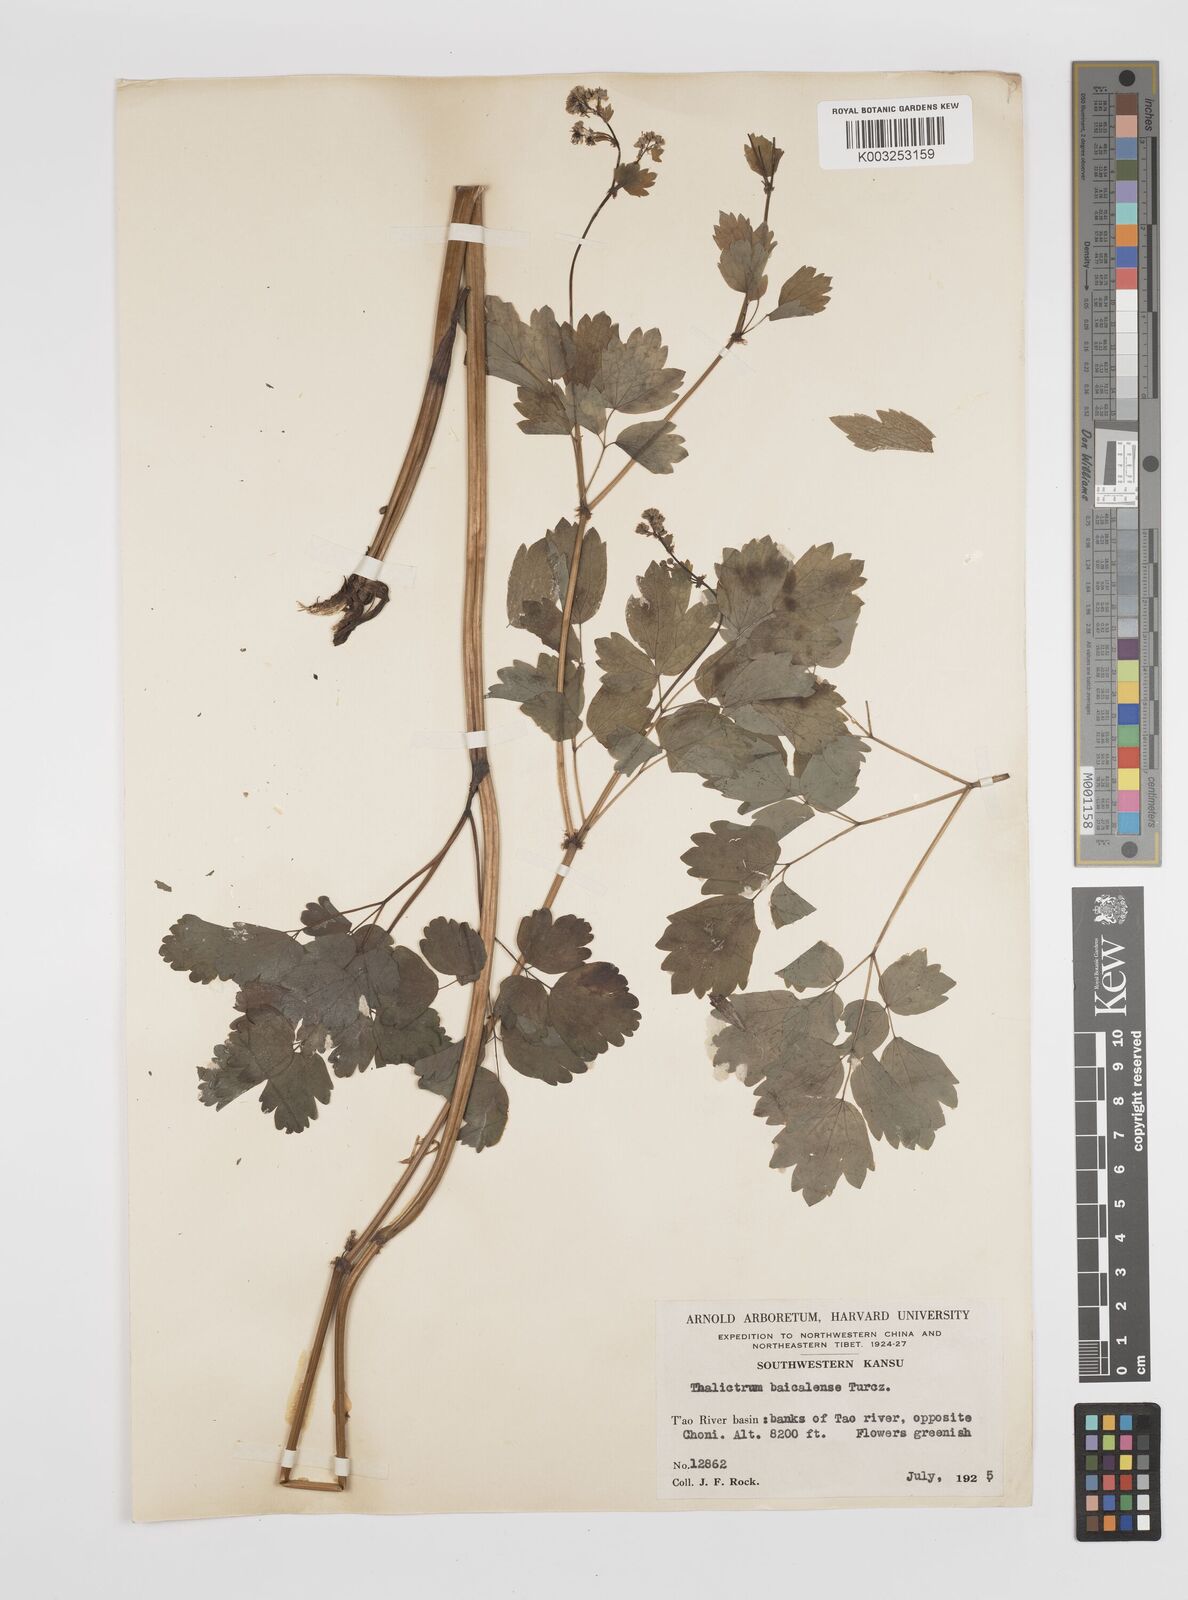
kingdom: Plantae
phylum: Tracheophyta
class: Magnoliopsida
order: Ranunculales
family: Ranunculaceae
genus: Thalictrum
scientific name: Thalictrum baicalense
